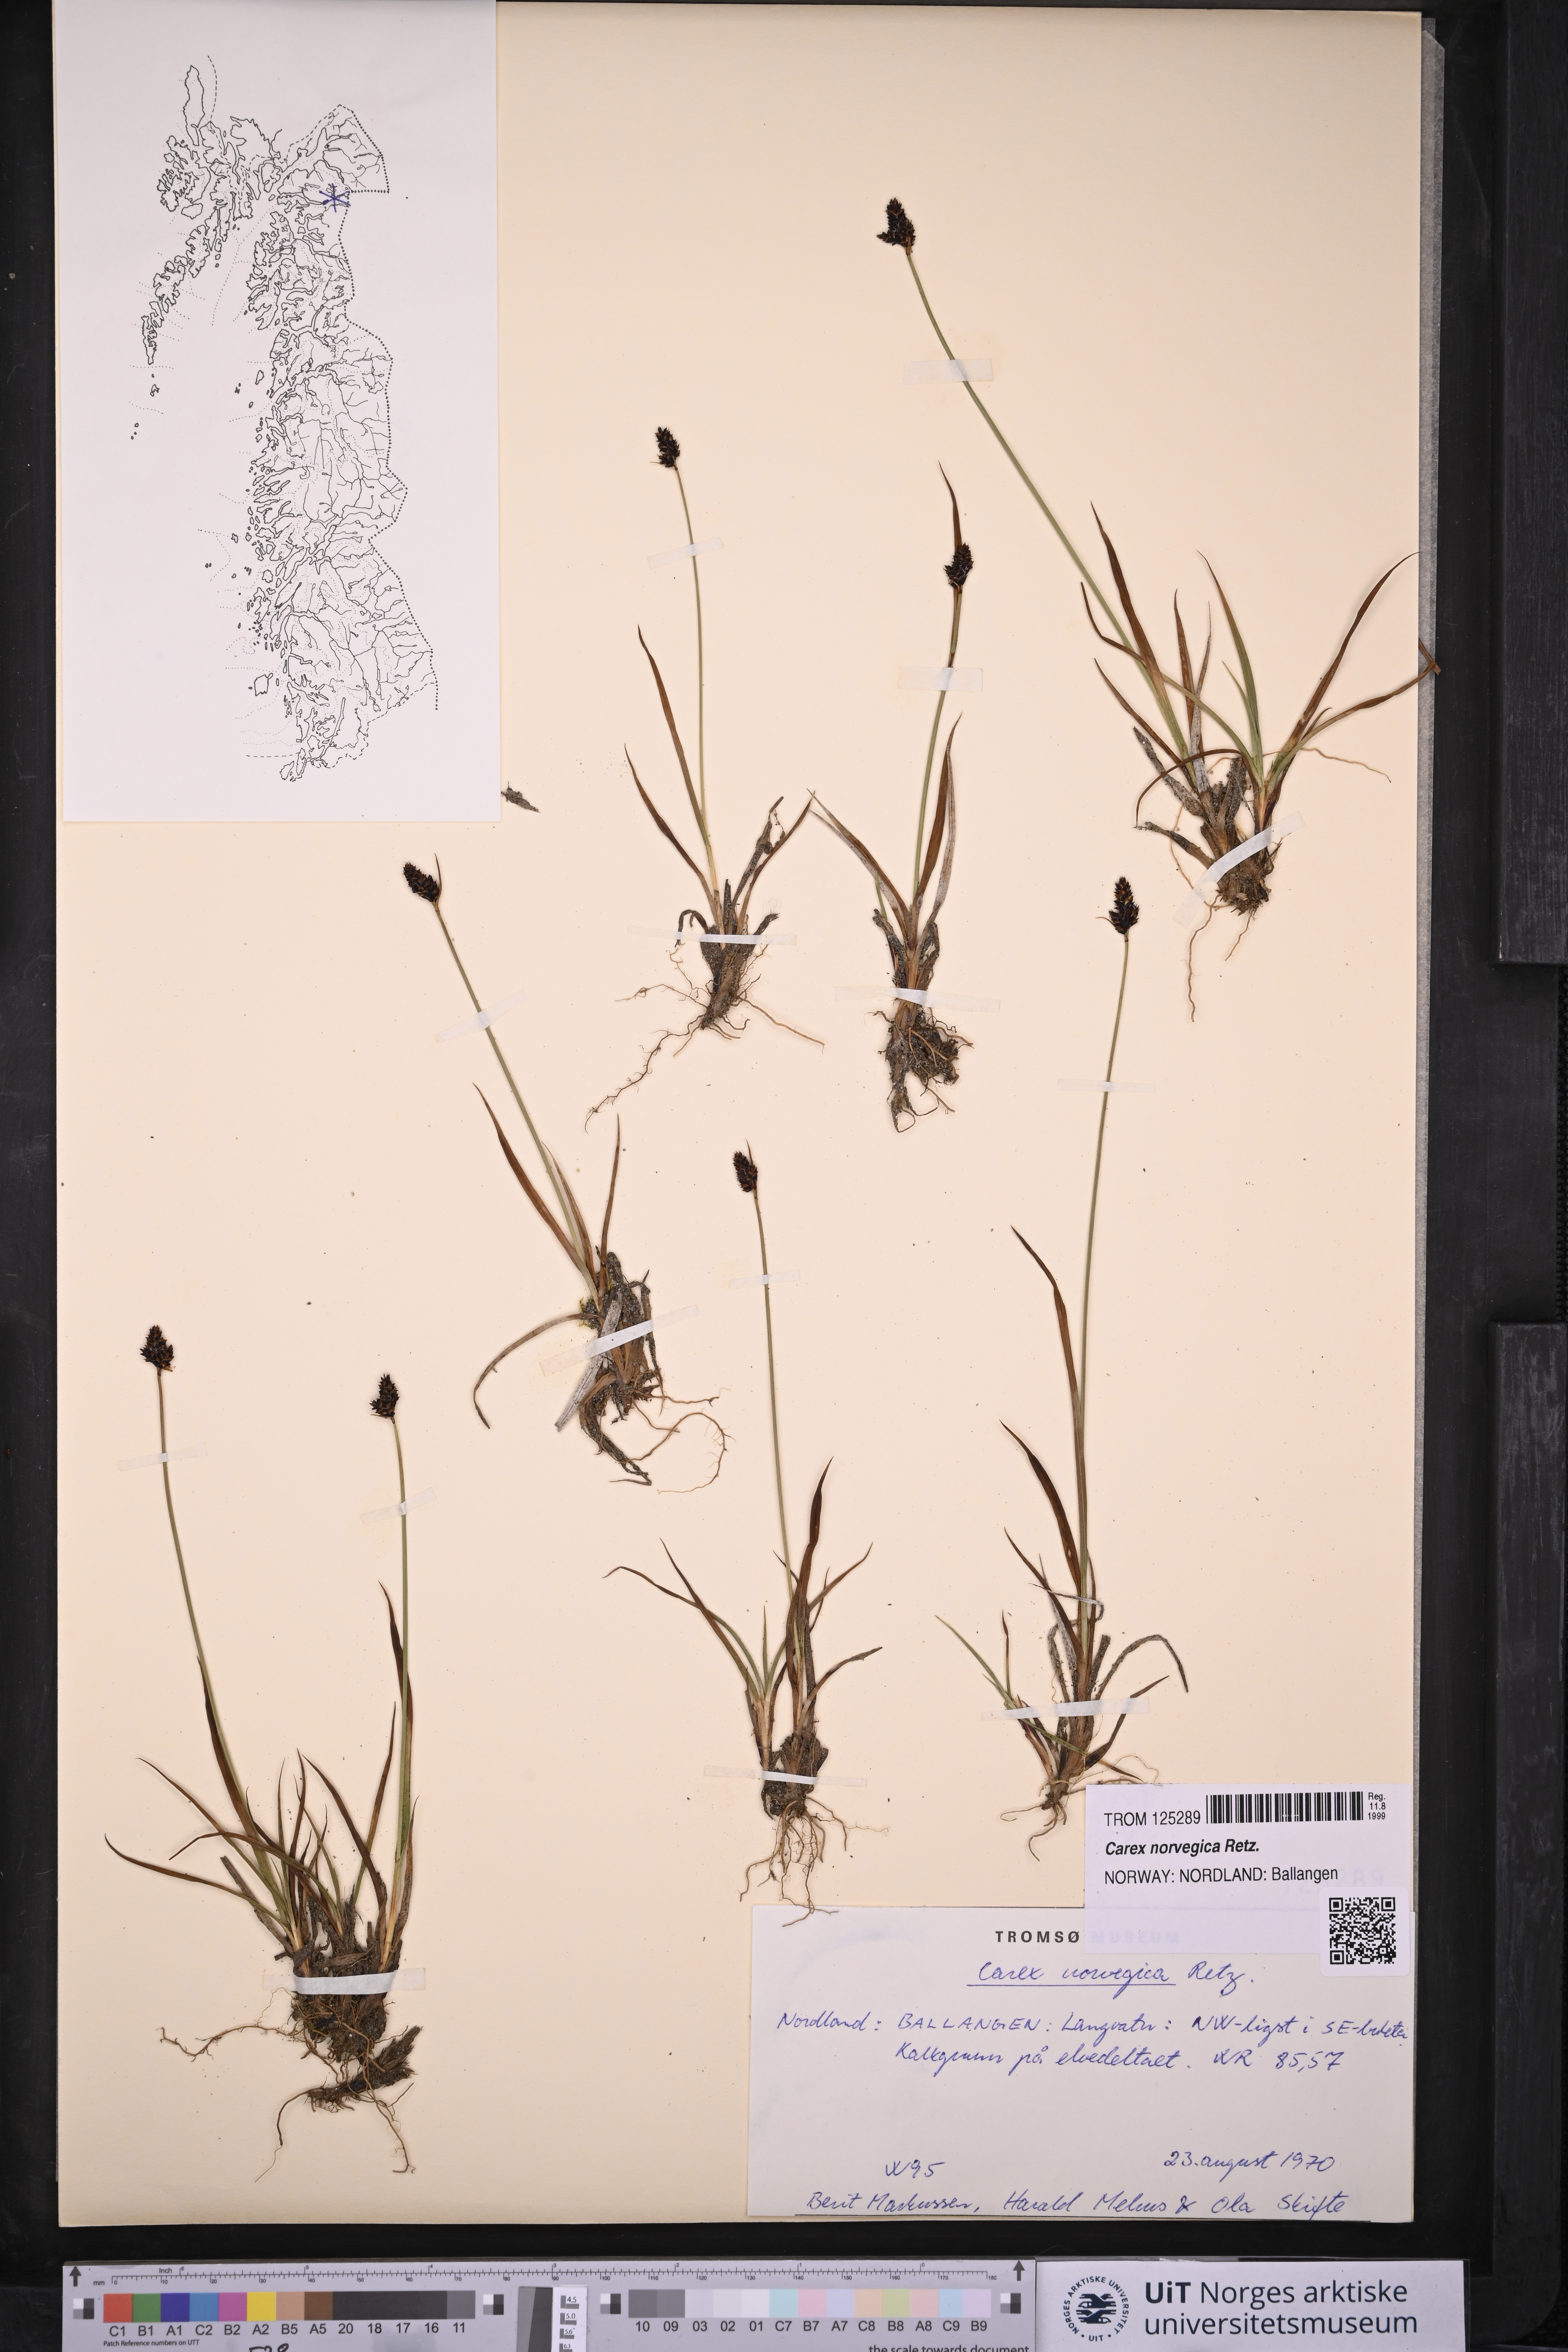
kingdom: Plantae
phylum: Tracheophyta
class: Liliopsida
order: Poales
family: Cyperaceae
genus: Carex
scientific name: Carex norvegica
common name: Close-headed alpine-sedge
